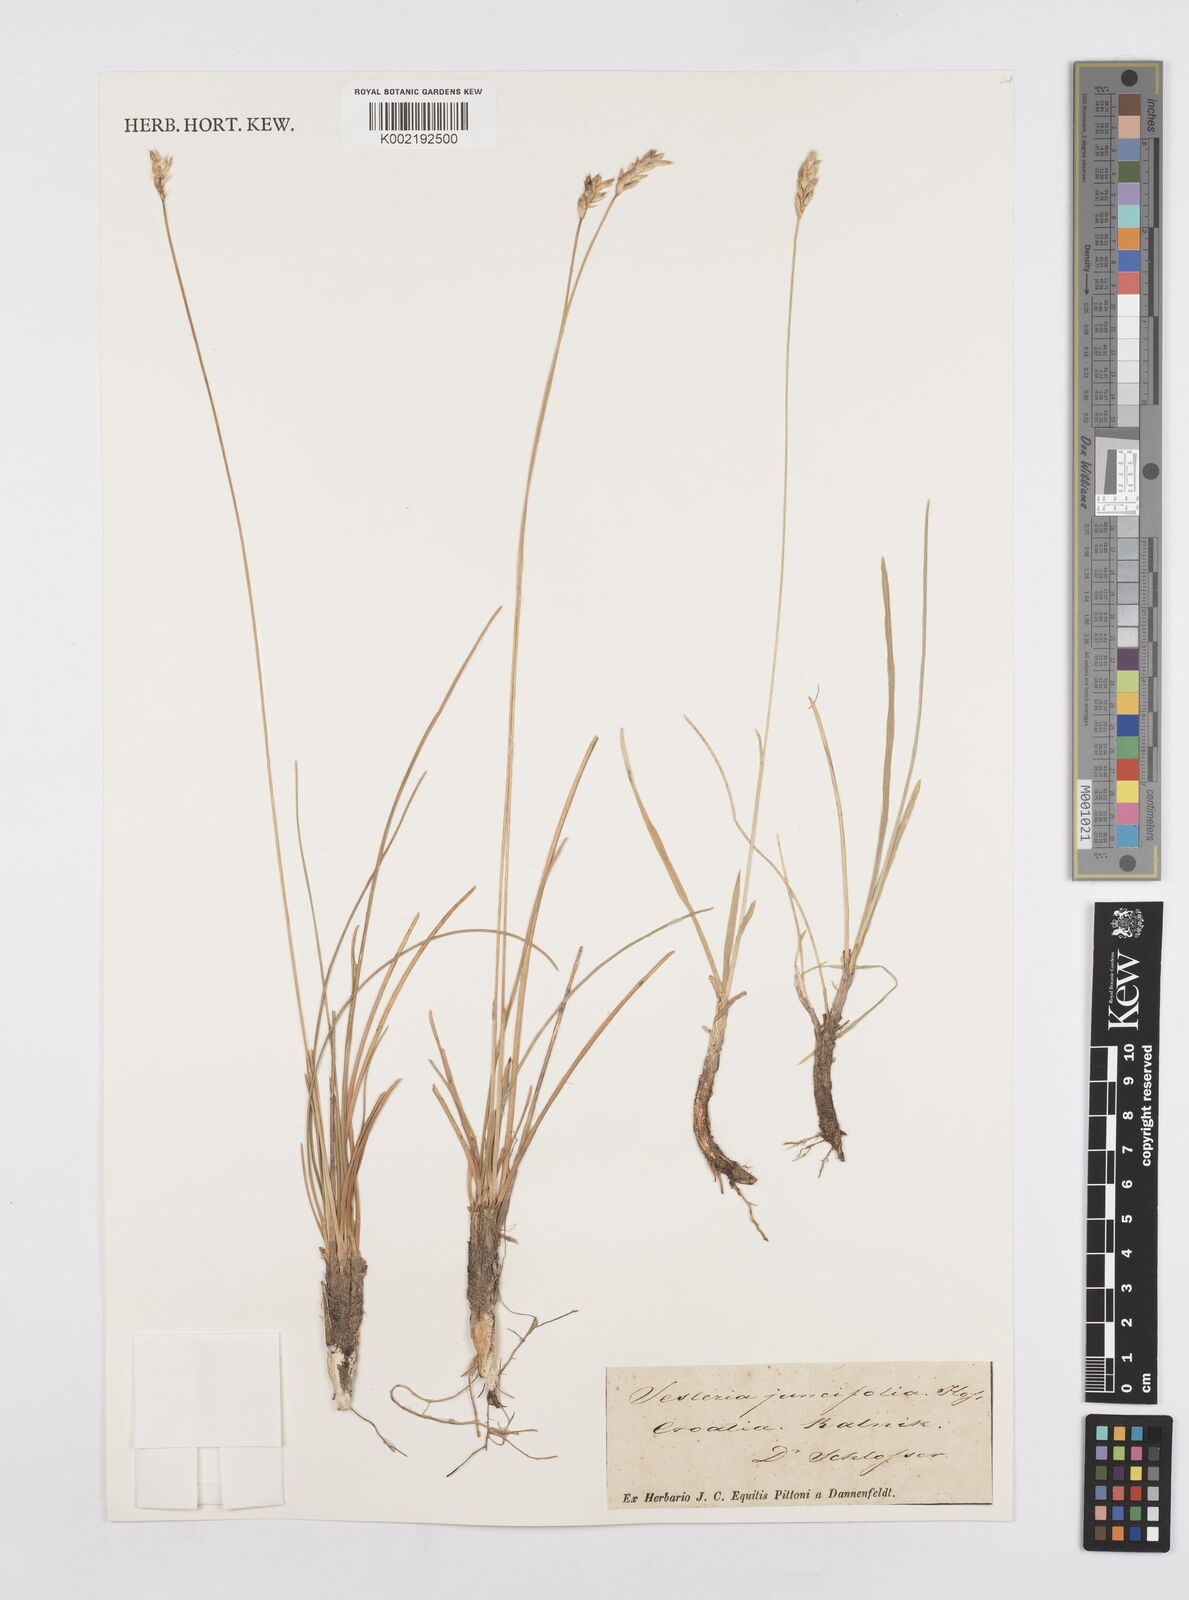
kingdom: Plantae
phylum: Tracheophyta
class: Liliopsida
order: Poales
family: Poaceae
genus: Sesleria
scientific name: Sesleria juncifolia
